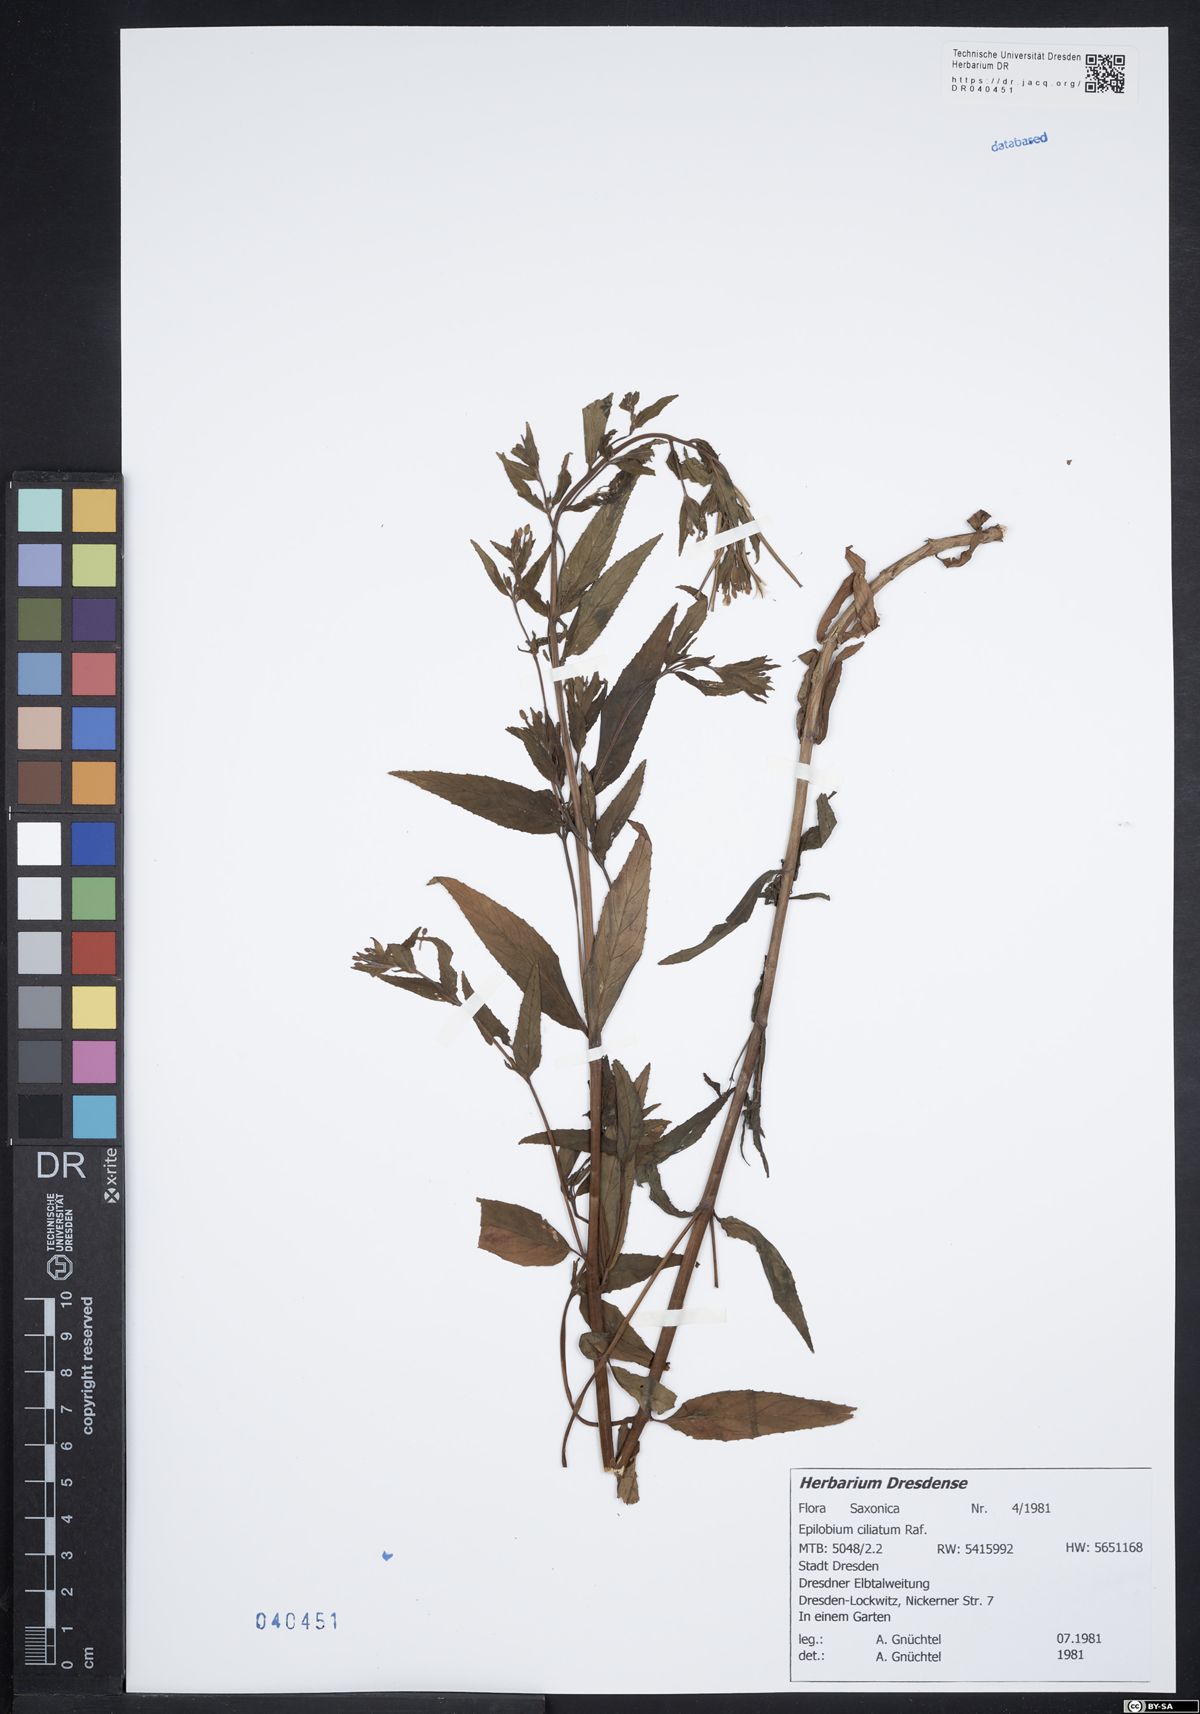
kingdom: Plantae
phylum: Tracheophyta
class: Magnoliopsida
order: Myrtales
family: Onagraceae
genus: Epilobium
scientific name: Epilobium ciliatum
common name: American willowherb
